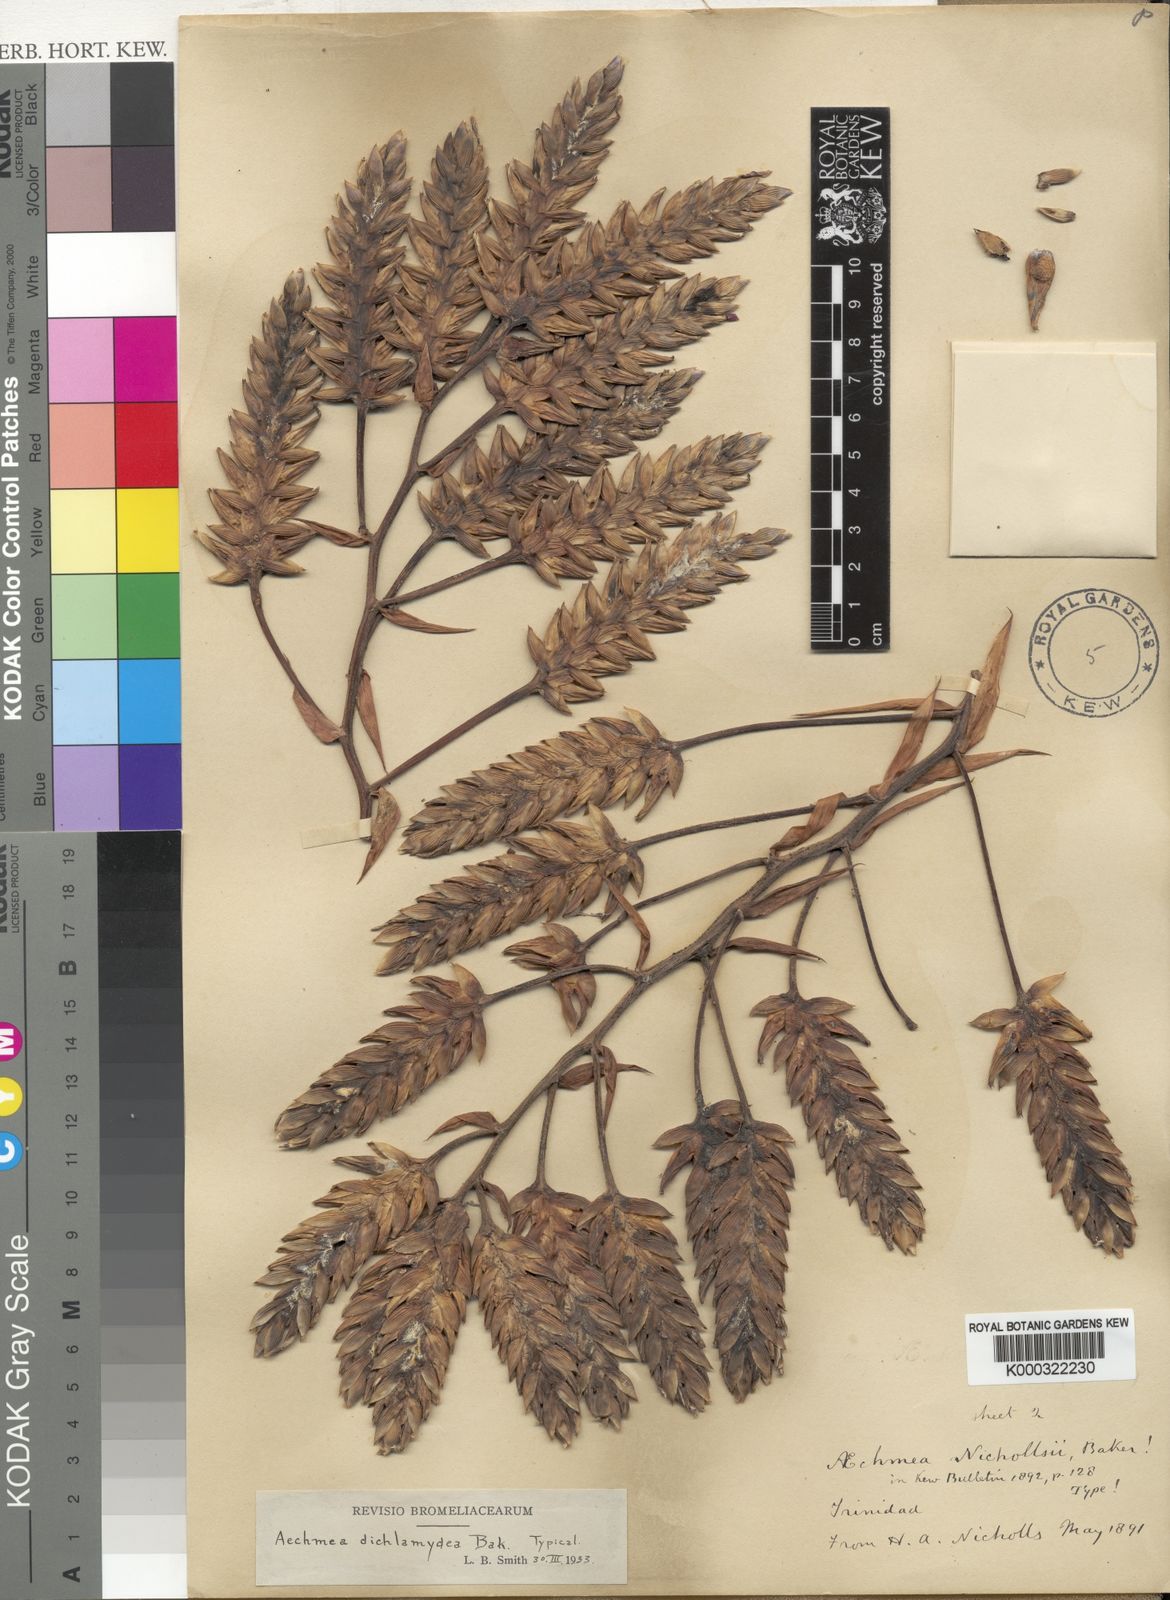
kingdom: Plantae
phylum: Tracheophyta
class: Liliopsida
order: Poales
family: Bromeliaceae
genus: Aechmea
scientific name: Aechmea dichlamydea
